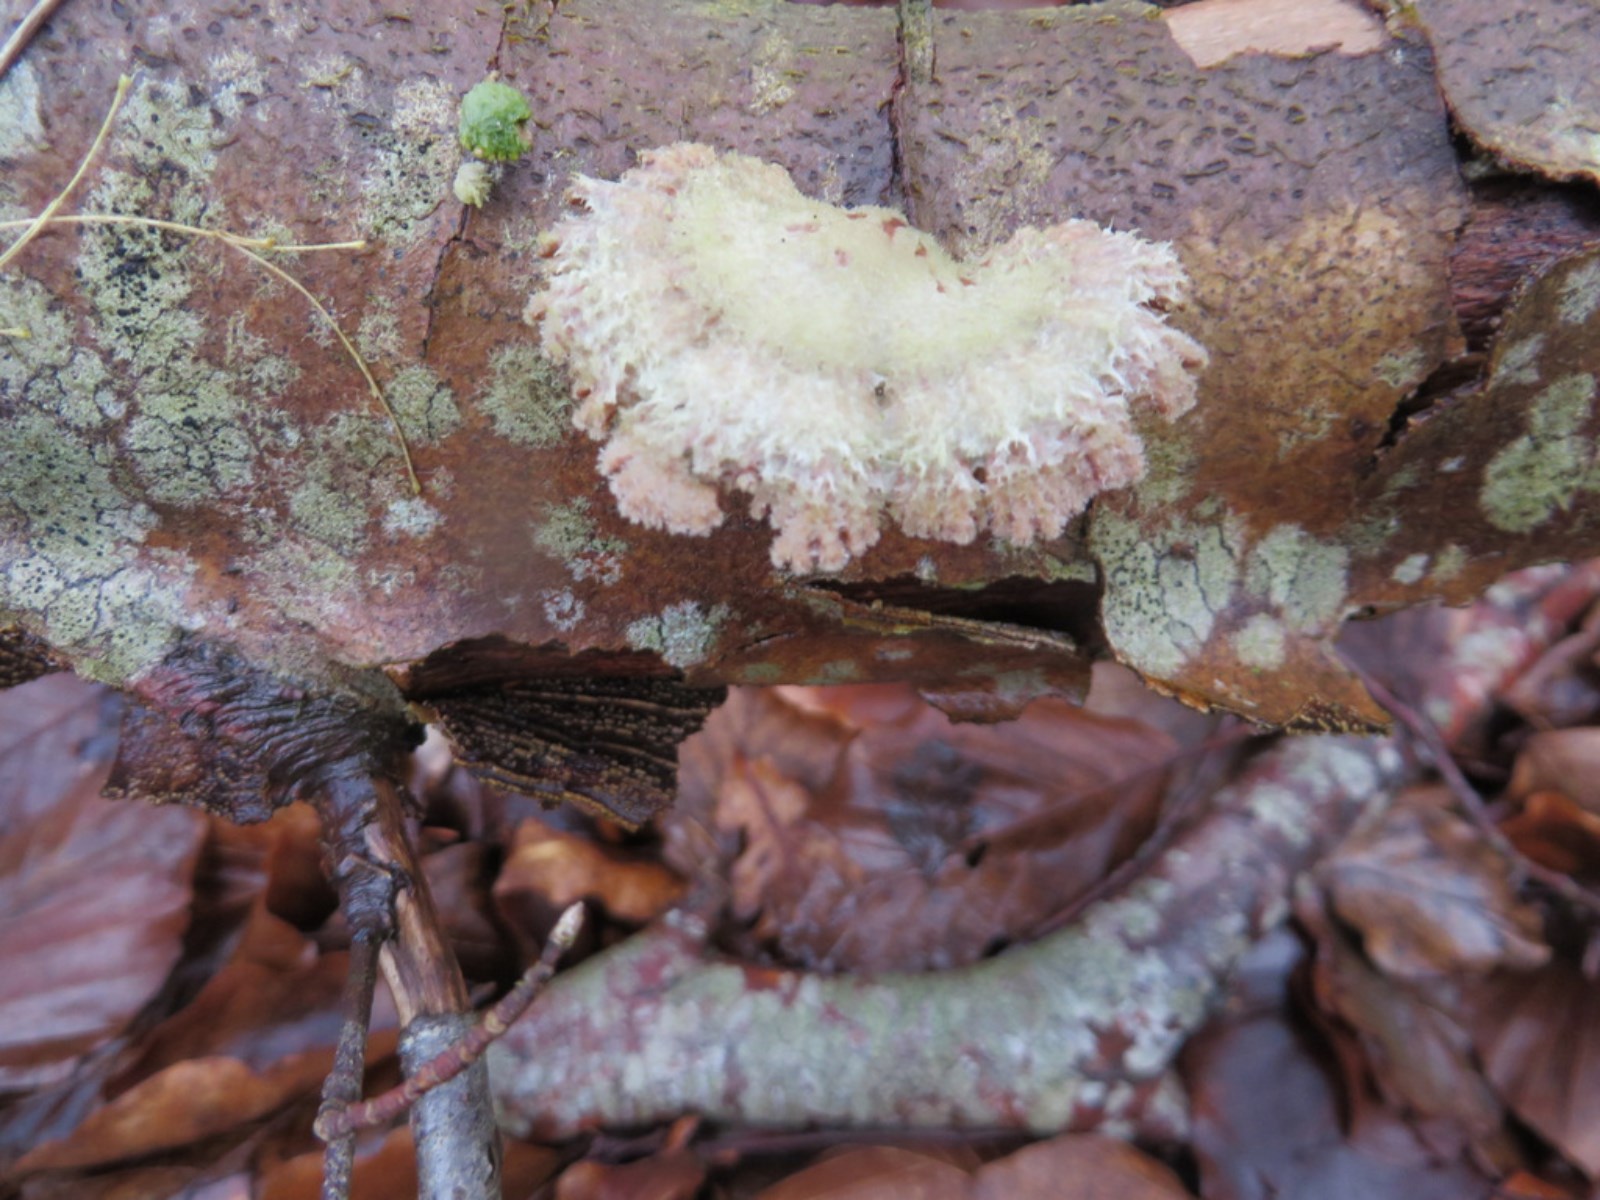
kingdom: Fungi
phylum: Basidiomycota
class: Agaricomycetes
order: Agaricales
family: Schizophyllaceae
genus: Schizophyllum
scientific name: Schizophyllum commune
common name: kløvblad
